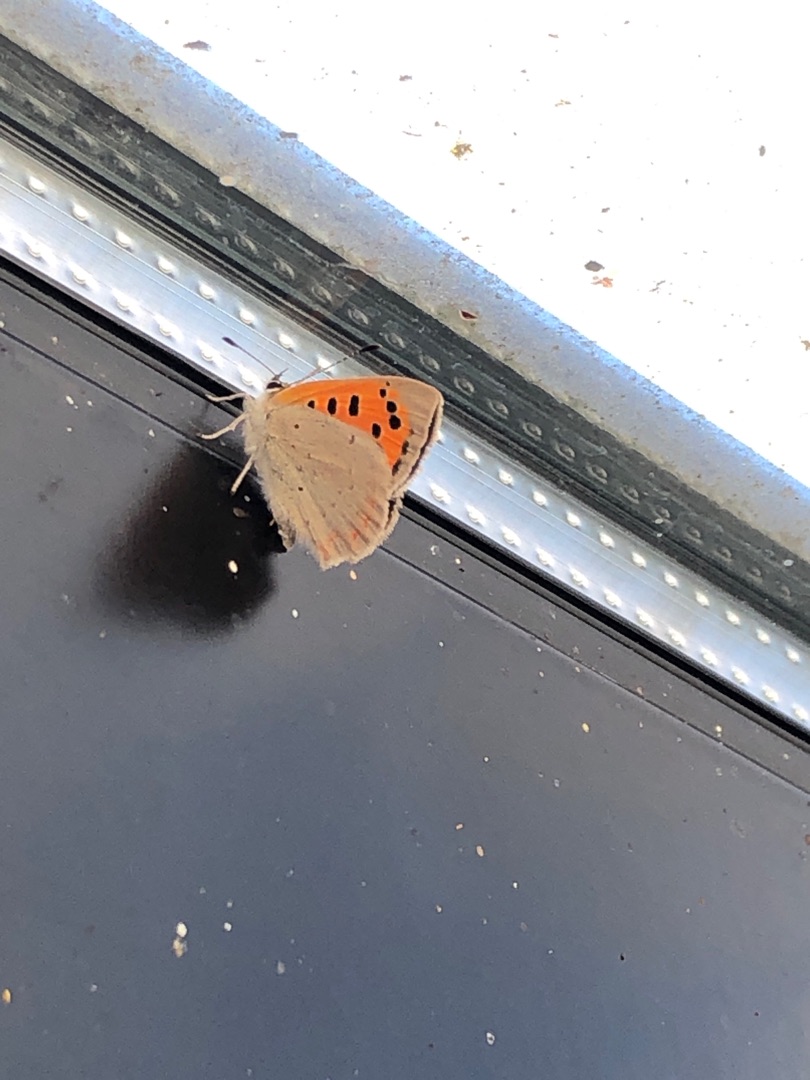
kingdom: Animalia
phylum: Arthropoda
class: Insecta
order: Lepidoptera
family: Lycaenidae
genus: Lycaena
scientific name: Lycaena phlaeas
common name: Lille ildfugl
